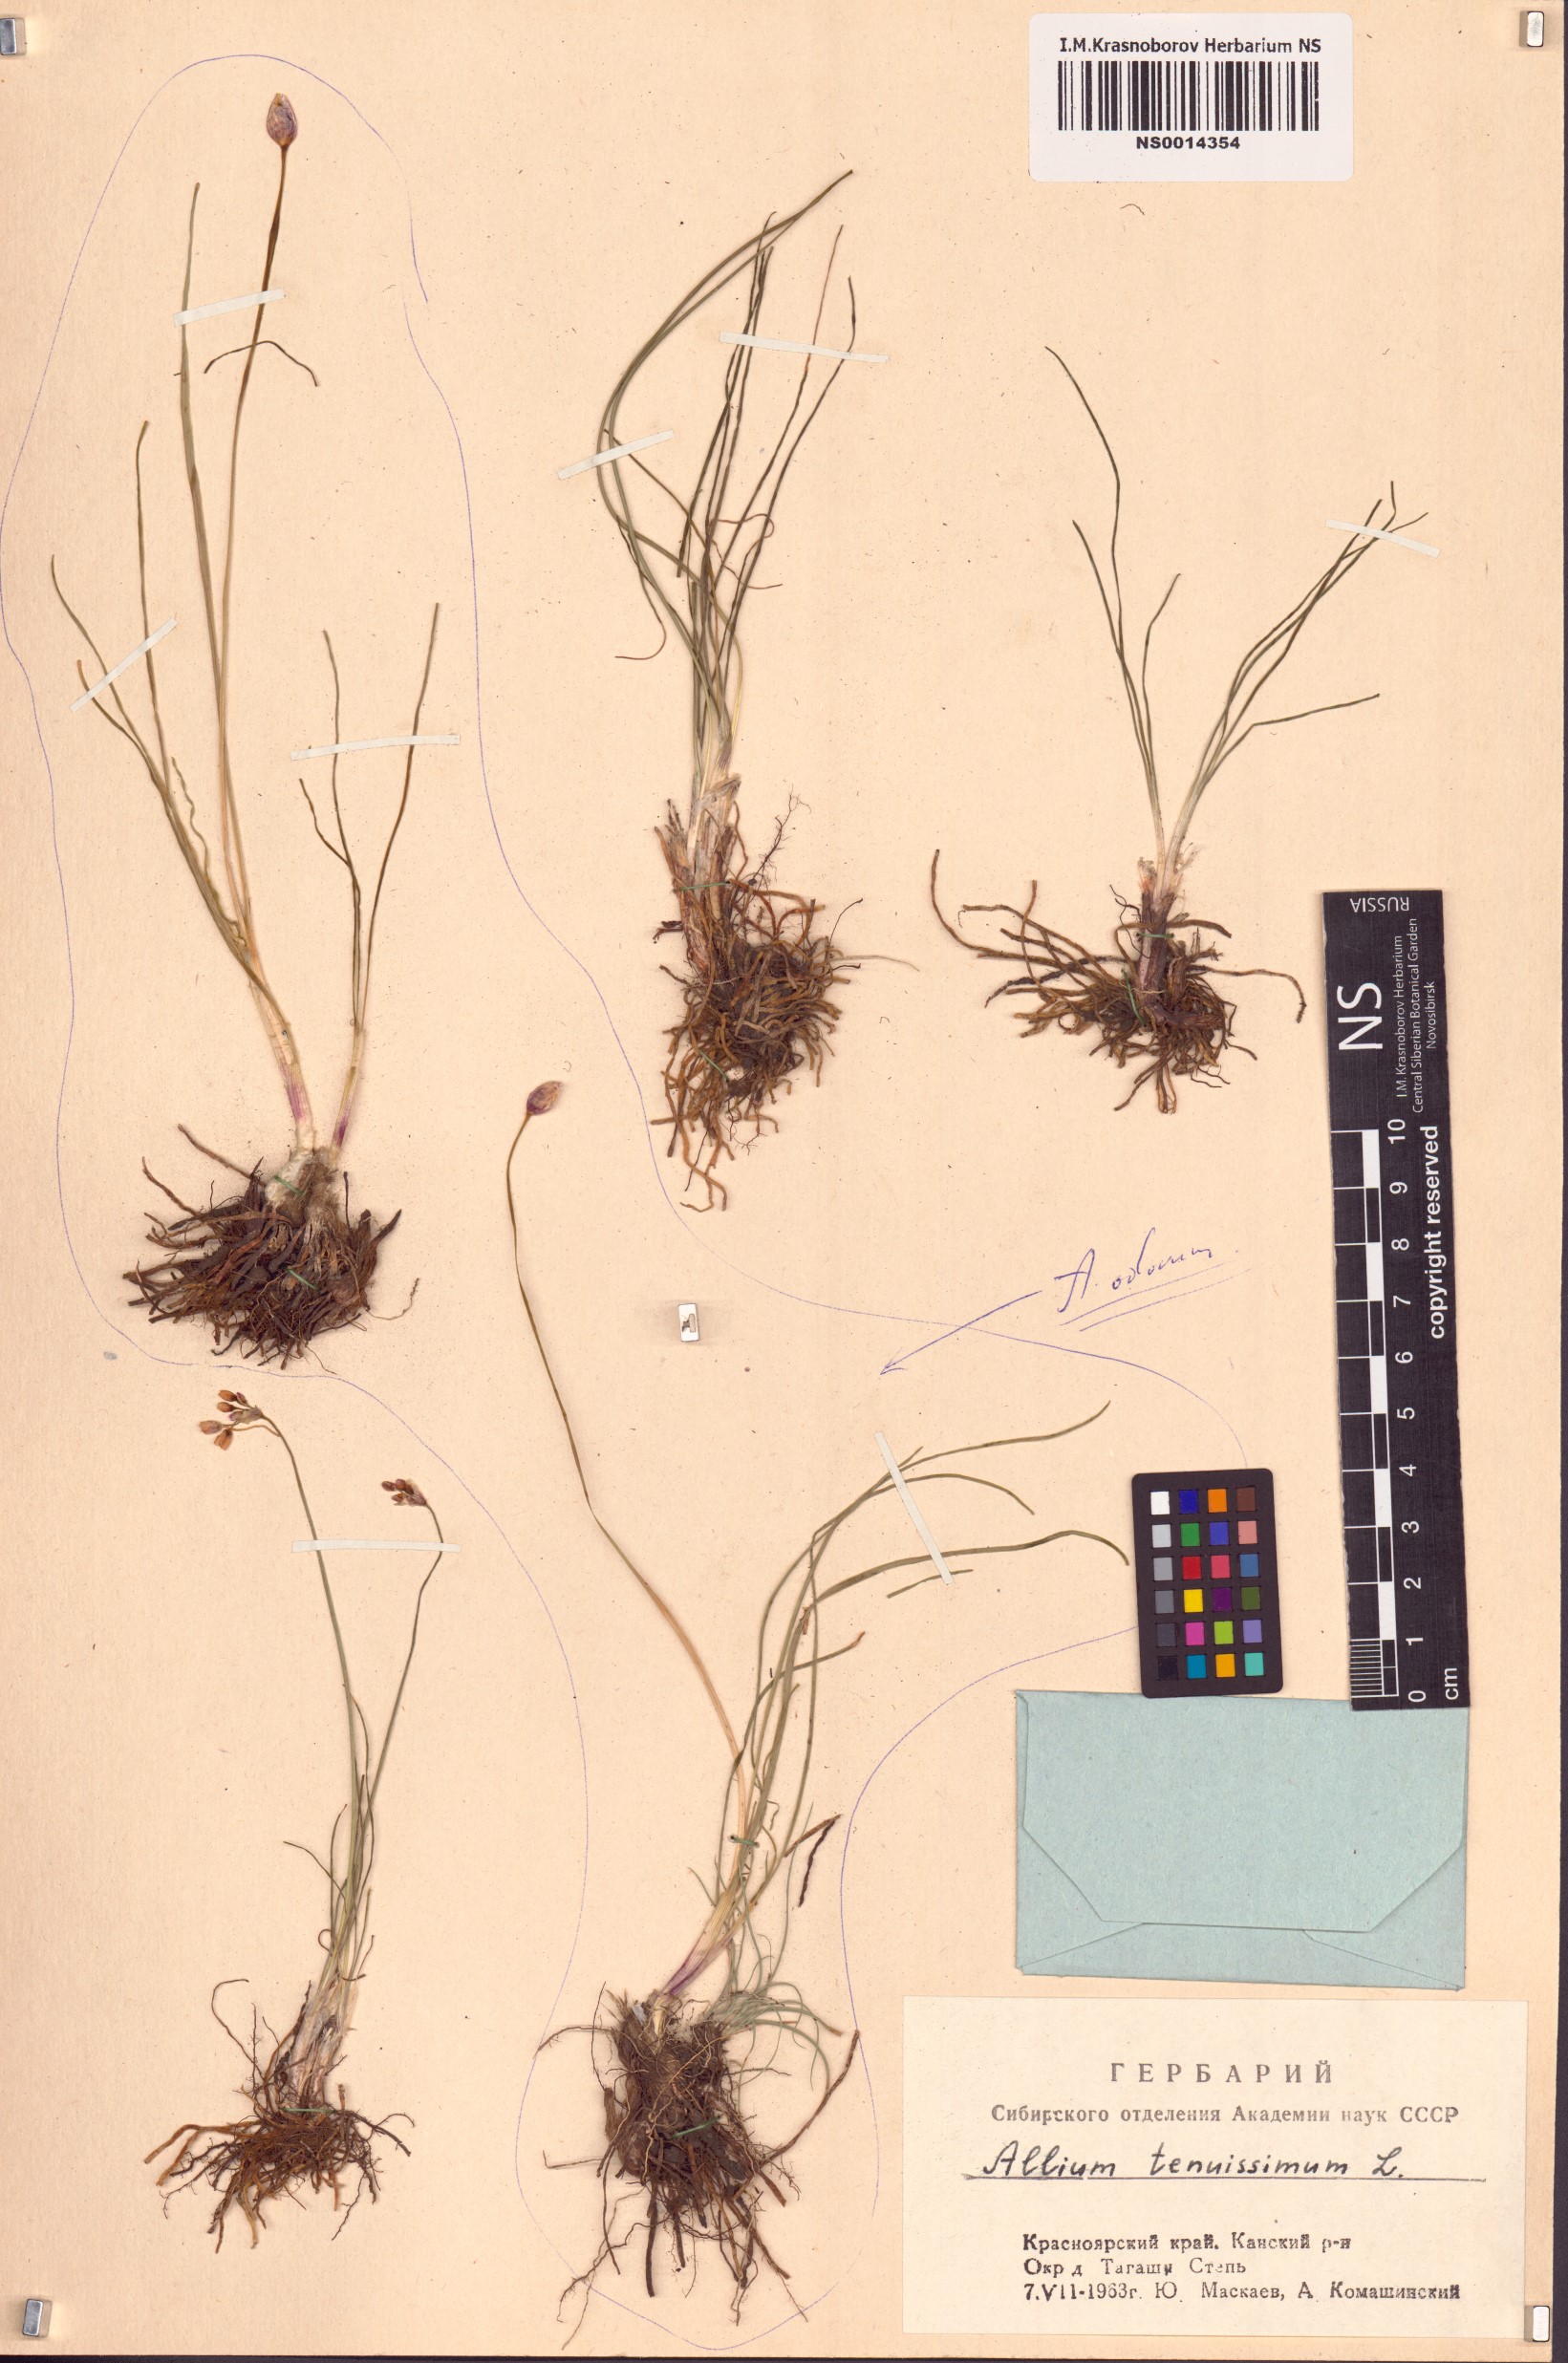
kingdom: Plantae
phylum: Tracheophyta
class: Liliopsida
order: Asparagales
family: Amaryllidaceae
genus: Allium
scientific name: Allium tenuissimum
